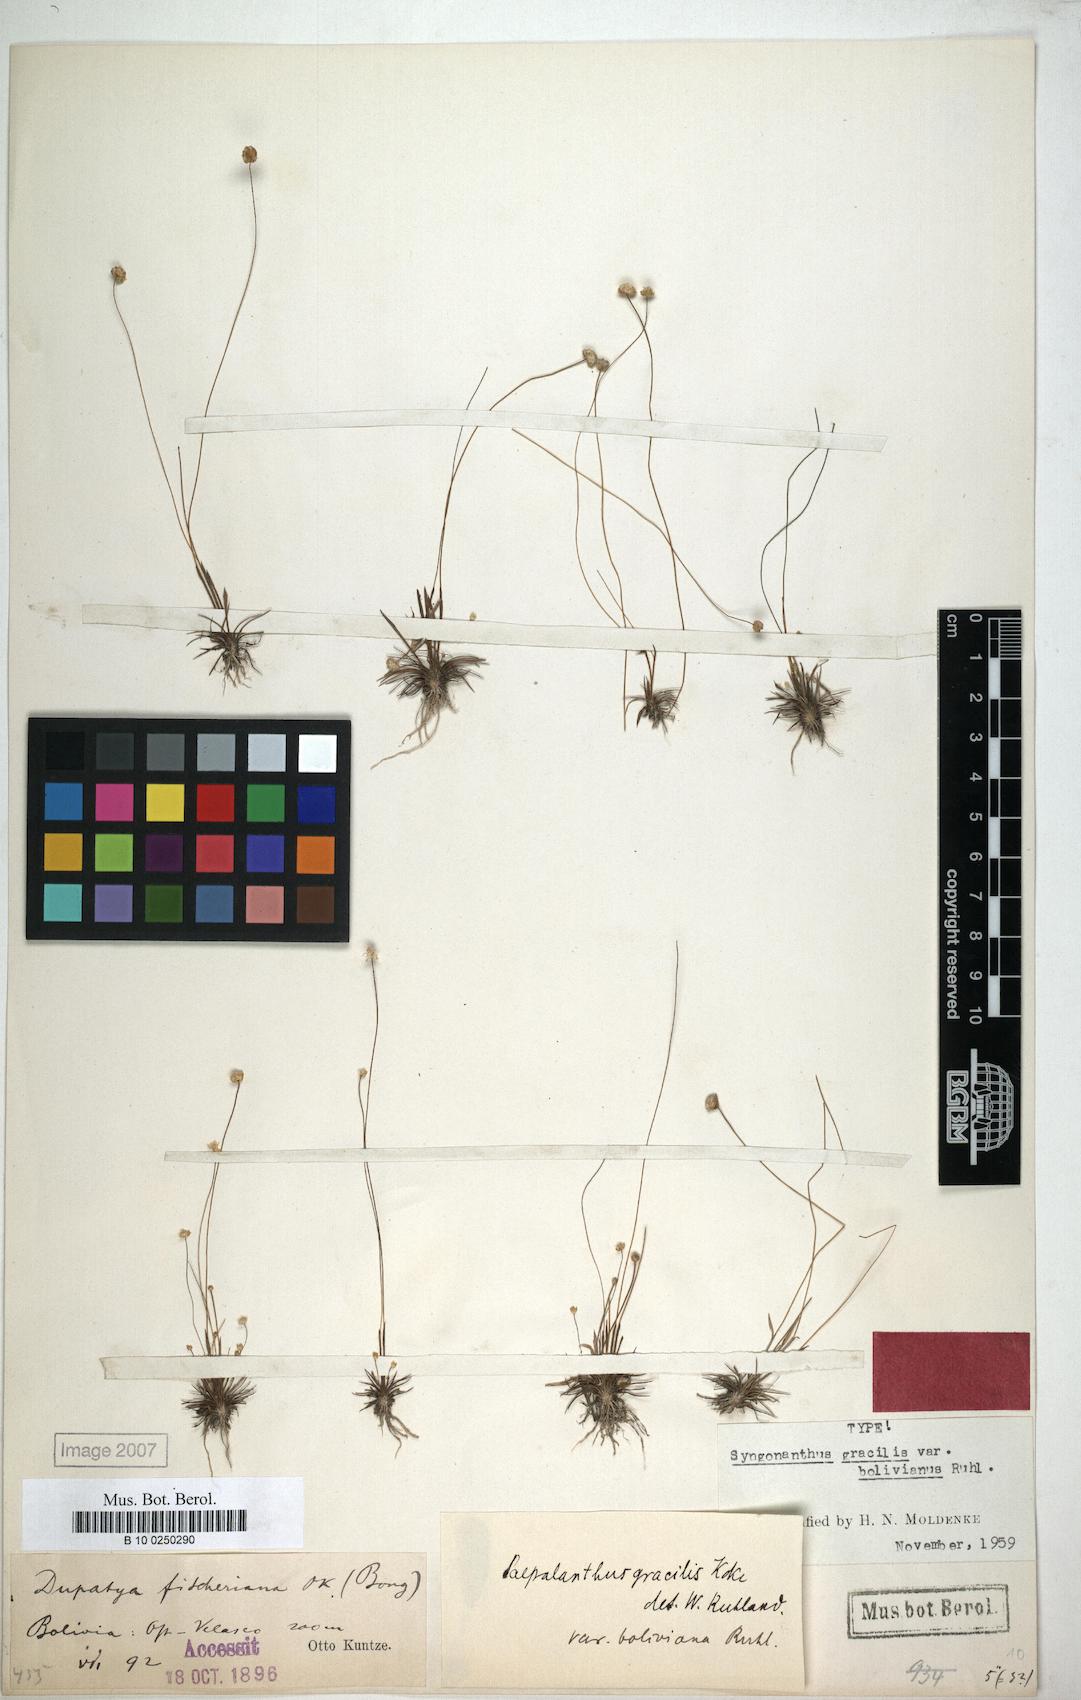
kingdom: Plantae
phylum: Tracheophyta
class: Liliopsida
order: Poales
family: Eriocaulaceae
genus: Syngonanthus
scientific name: Syngonanthus davidsei
